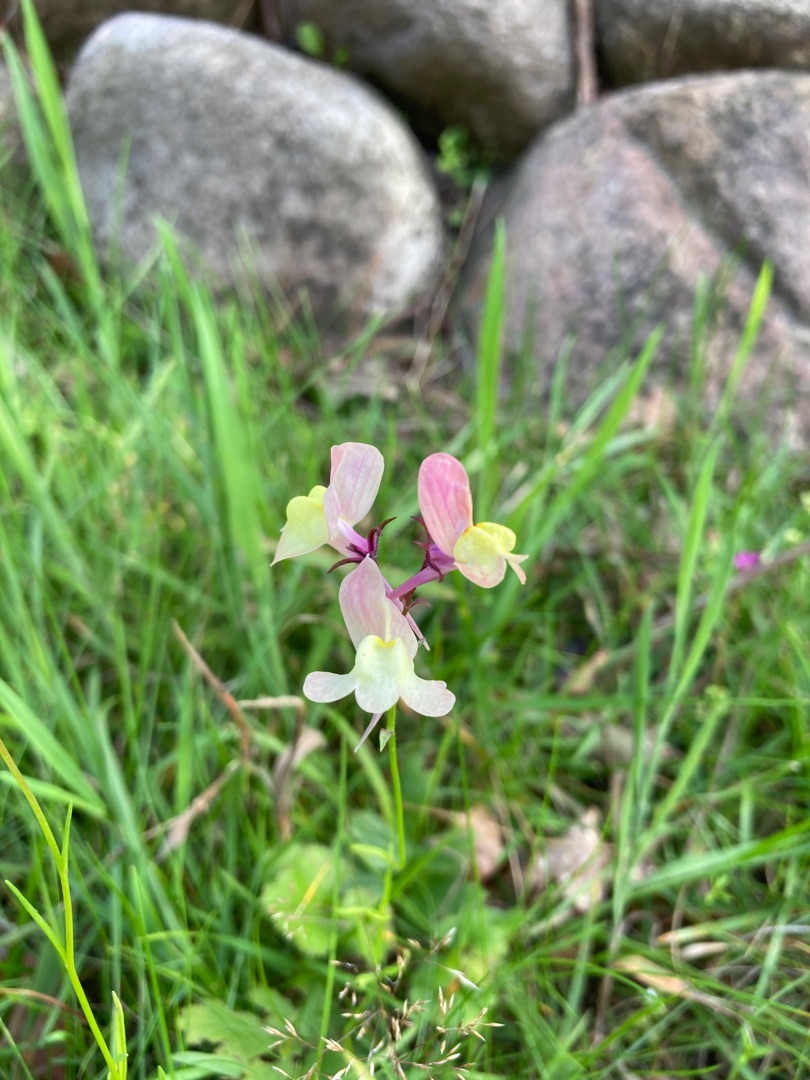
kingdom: Plantae
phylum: Tracheophyta
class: Magnoliopsida
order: Lamiales
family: Plantaginaceae
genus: Linaria
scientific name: Linaria maroccana
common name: Marokkansk torskemund
